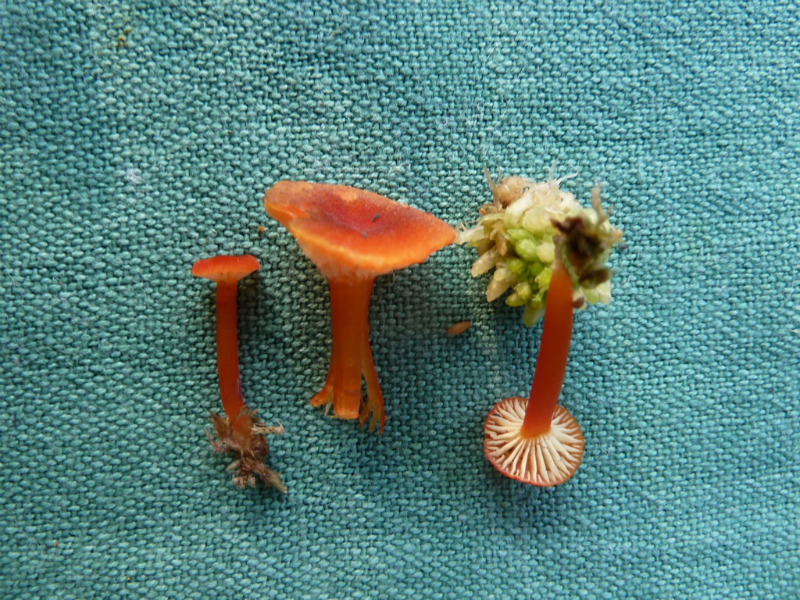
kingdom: Fungi
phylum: Basidiomycota
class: Agaricomycetes
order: Agaricales
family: Hygrophoraceae
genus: Hygrocybe
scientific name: Hygrocybe coccineocrenata
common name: tørvemos-vokshat
